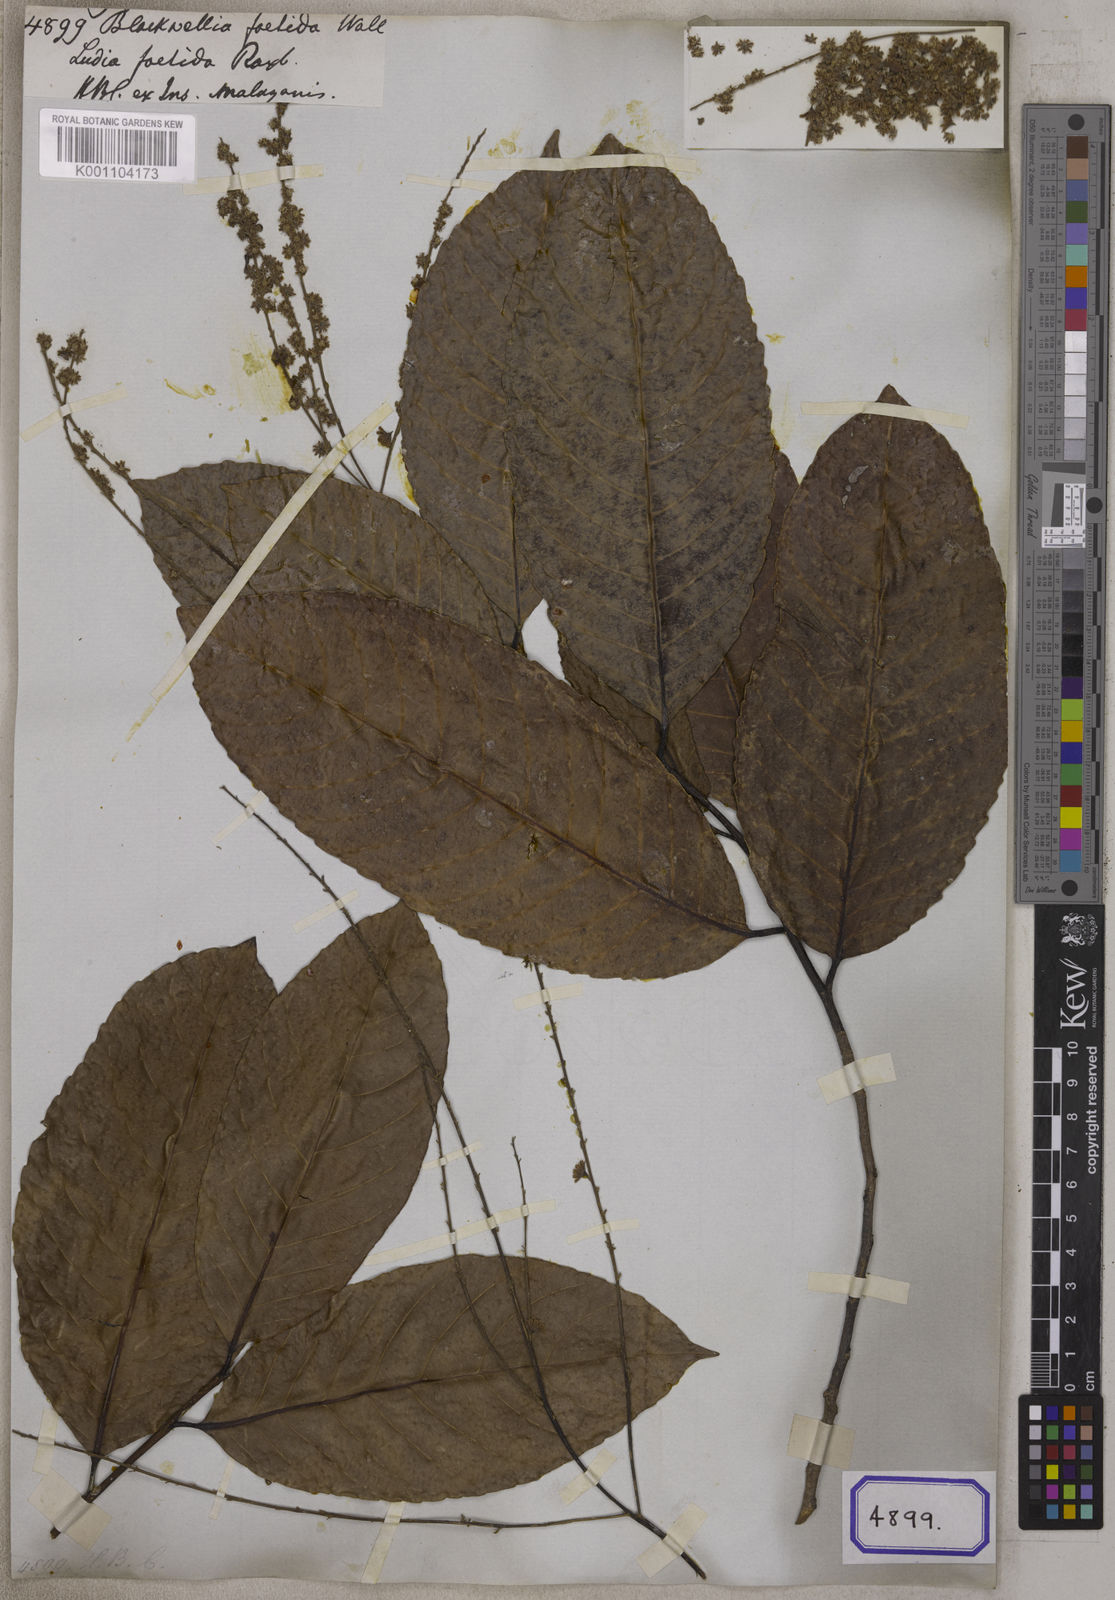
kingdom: Plantae
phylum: Tracheophyta
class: Magnoliopsida
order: Malpighiales
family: Salicaceae
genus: Homalium
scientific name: Homalium foetidum
